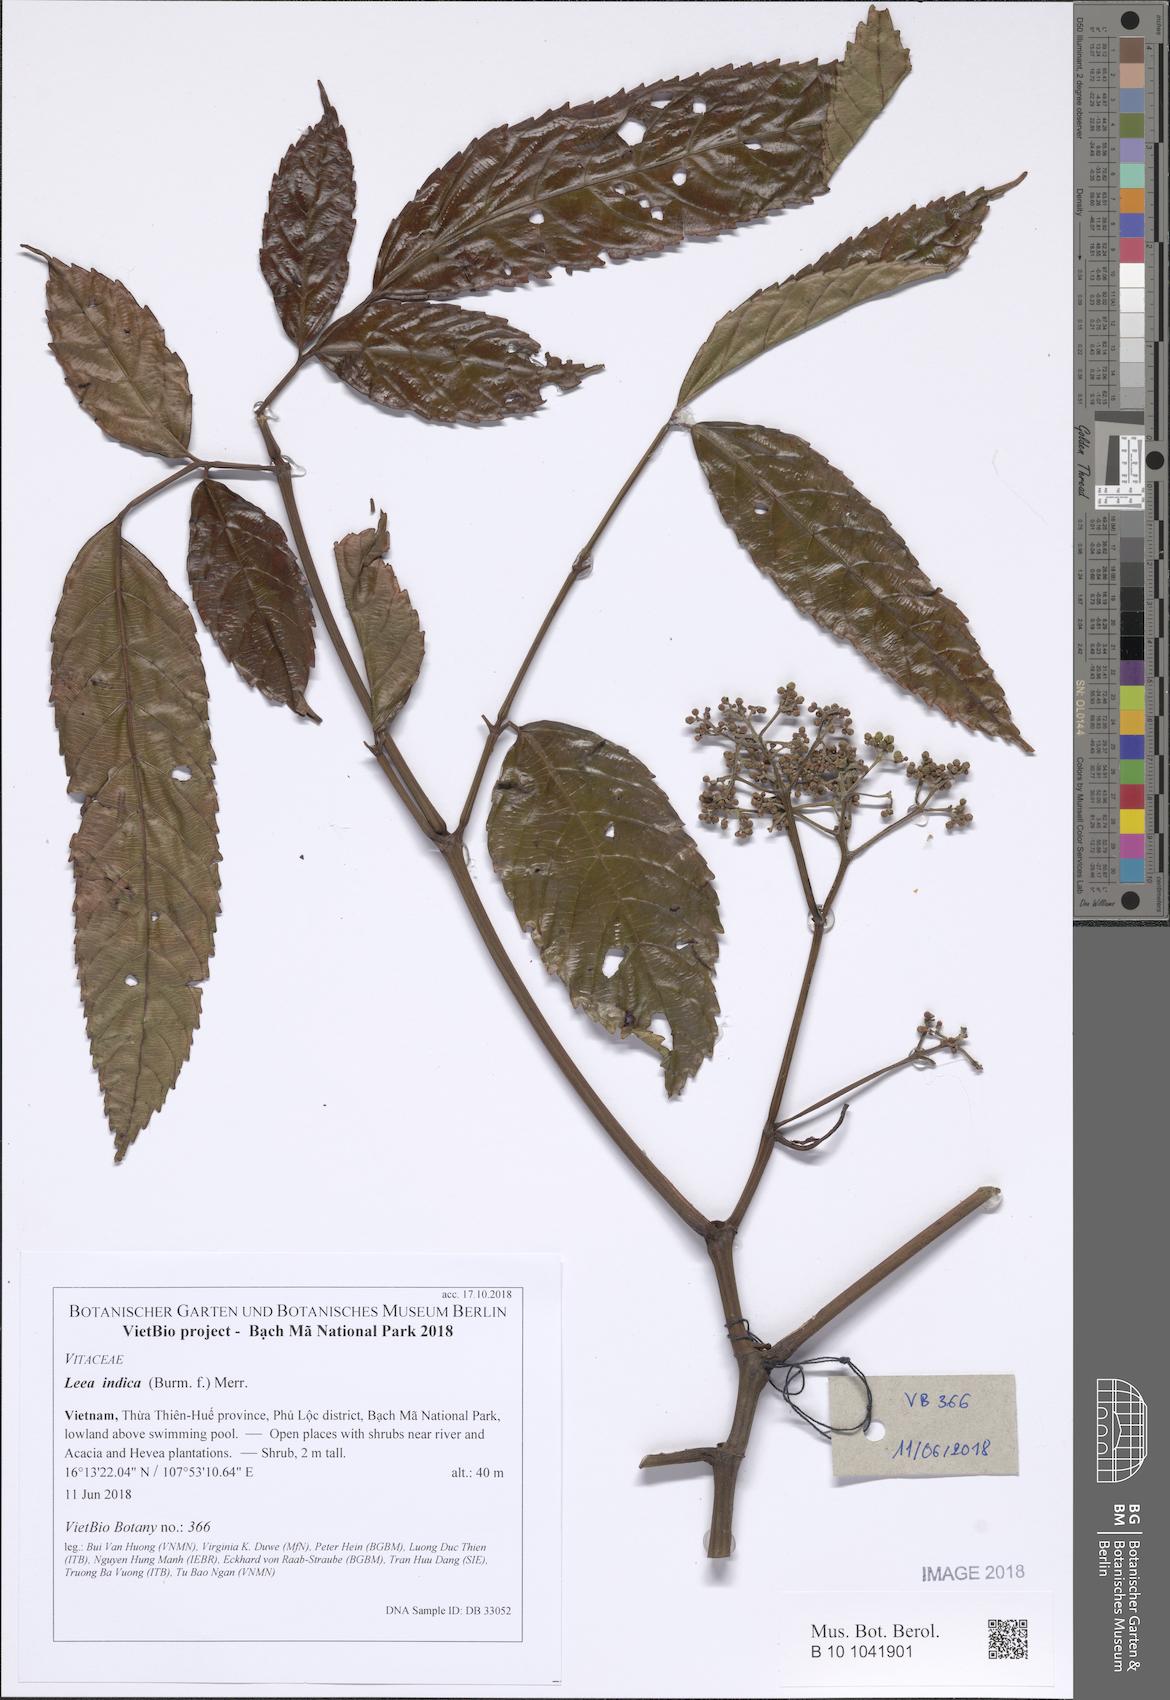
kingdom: Plantae
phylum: Tracheophyta
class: Magnoliopsida
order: Vitales
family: Vitaceae
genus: Leea
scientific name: Leea indica
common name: Bandicoot-berry
